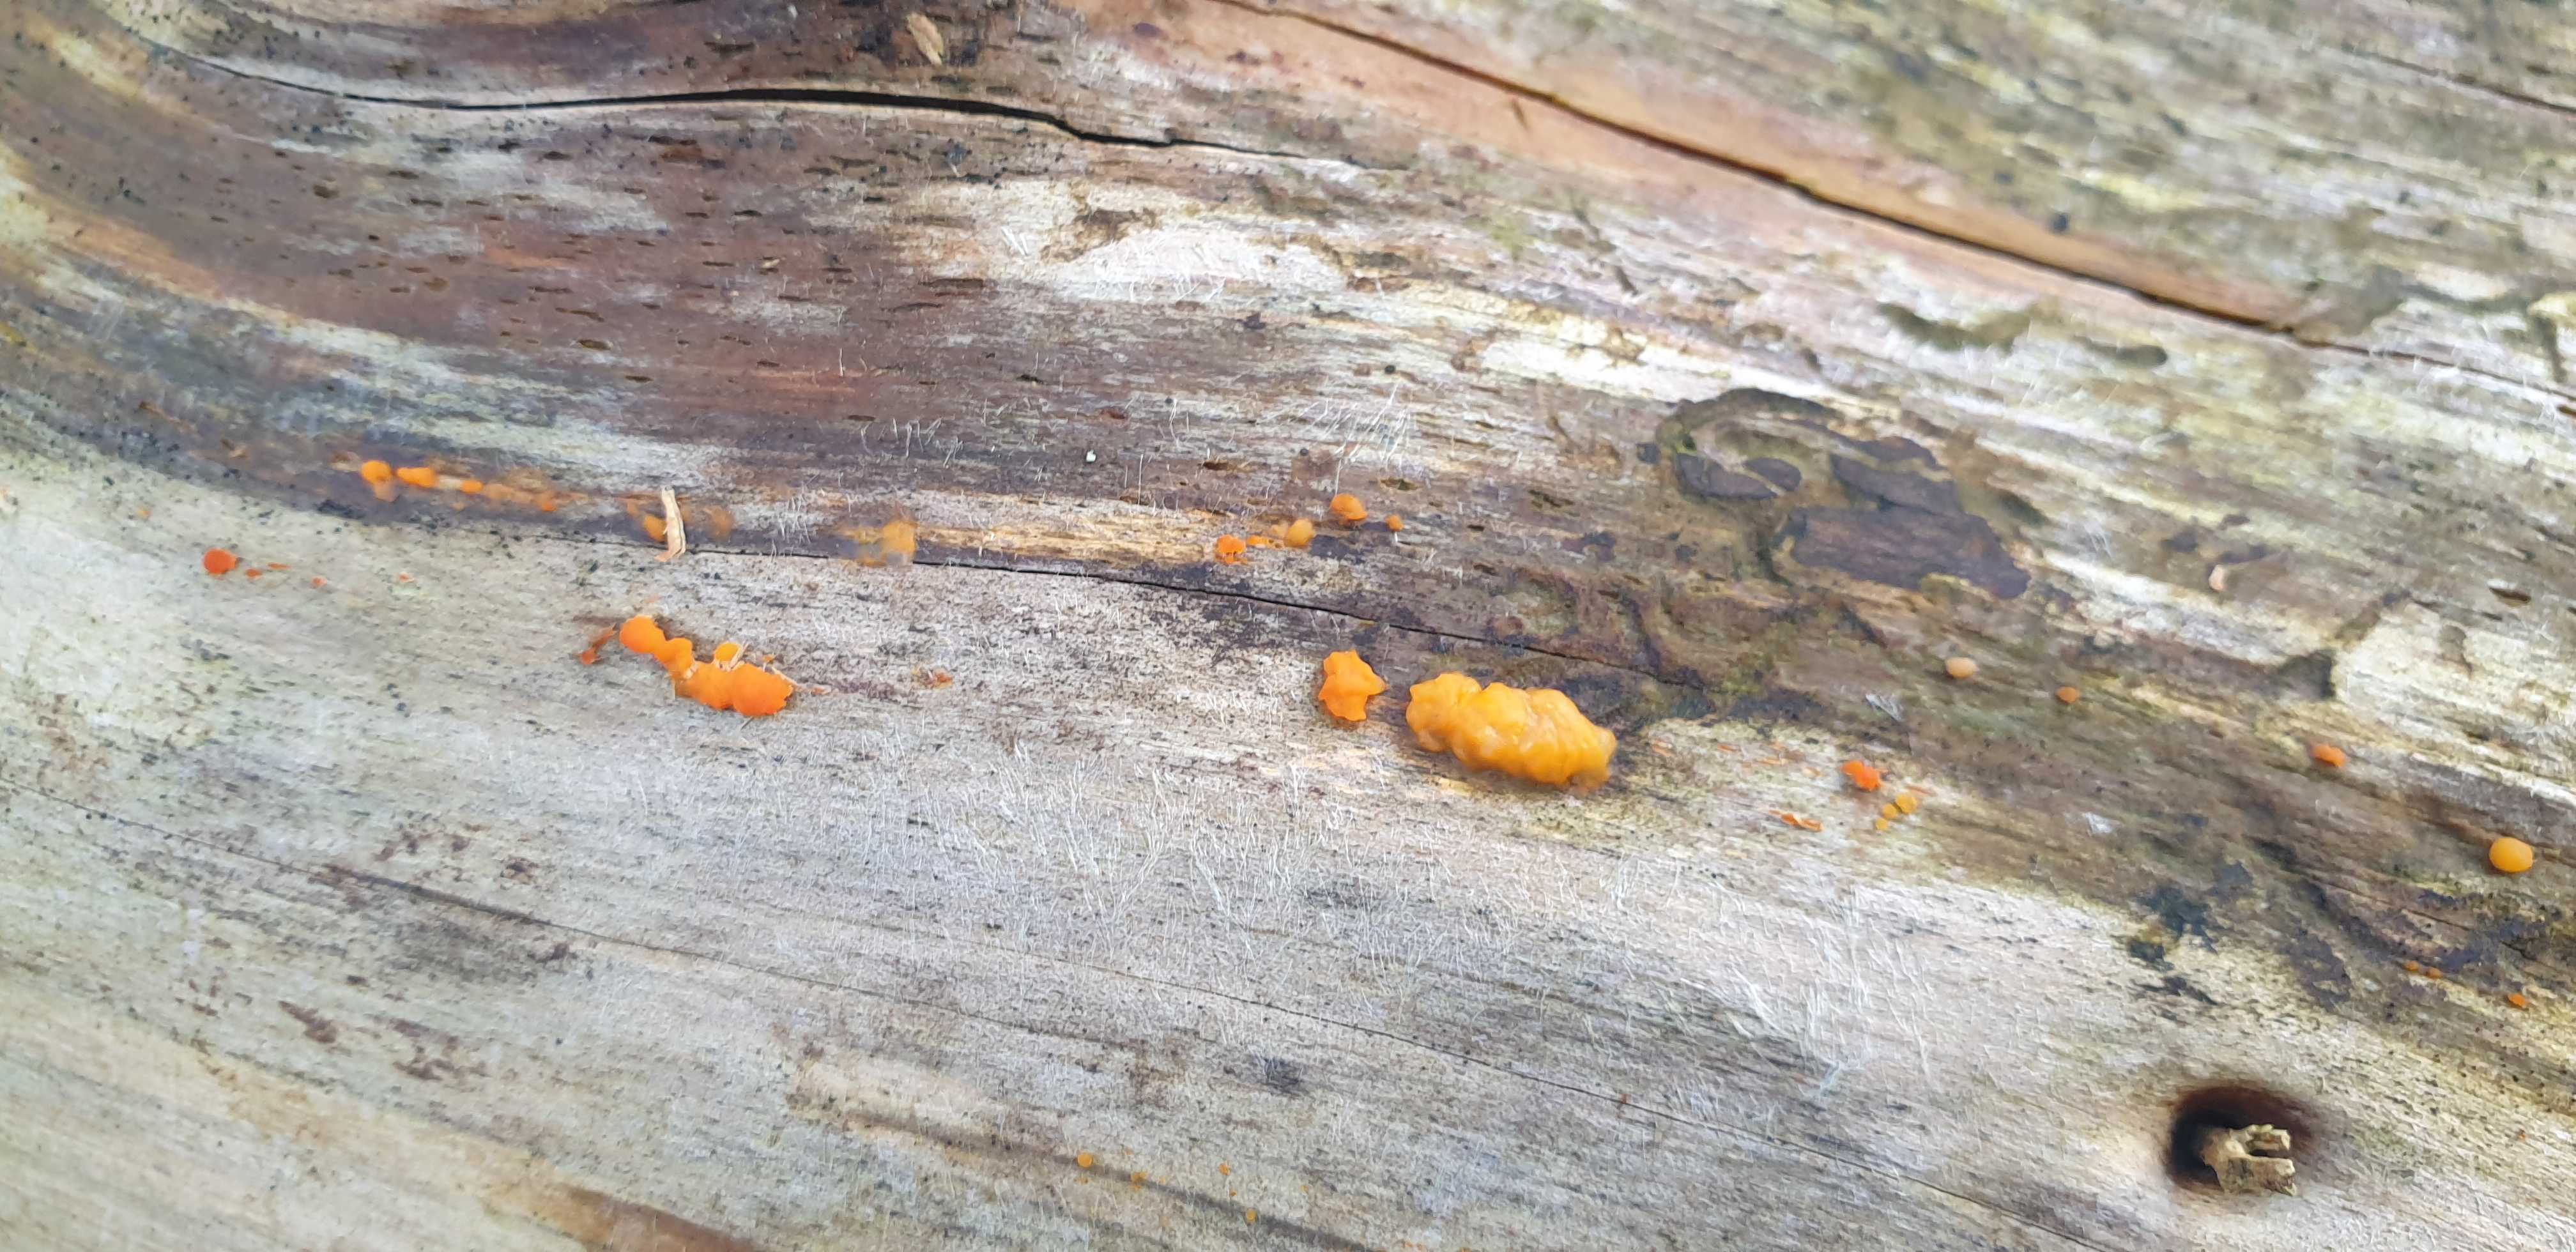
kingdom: Fungi
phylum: Basidiomycota
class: Dacrymycetes
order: Dacrymycetales
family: Dacrymycetaceae
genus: Dacrymyces
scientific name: Dacrymyces stillatus
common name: almindelig tåresvamp
